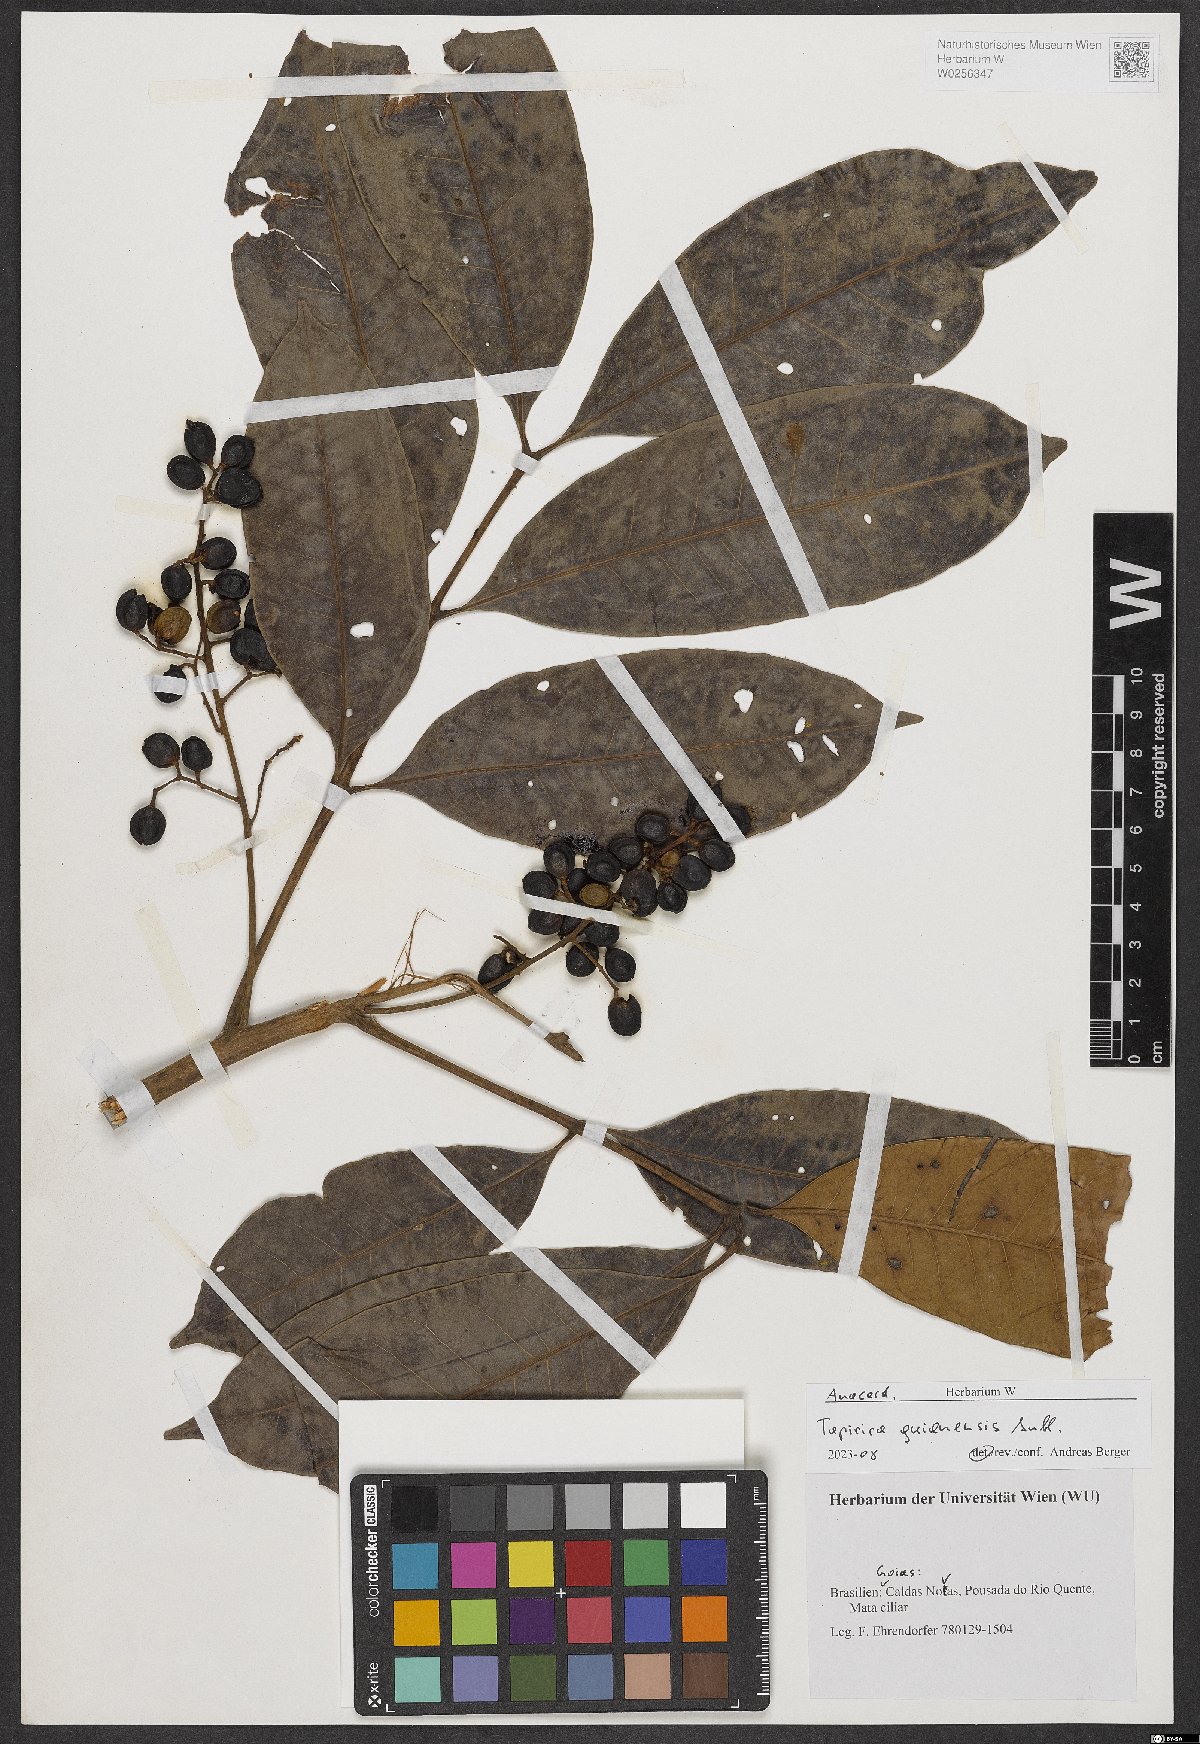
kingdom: Plantae
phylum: Tracheophyta
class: Magnoliopsida
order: Sapindales
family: Anacardiaceae
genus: Tapirira
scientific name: Tapirira guianensis
